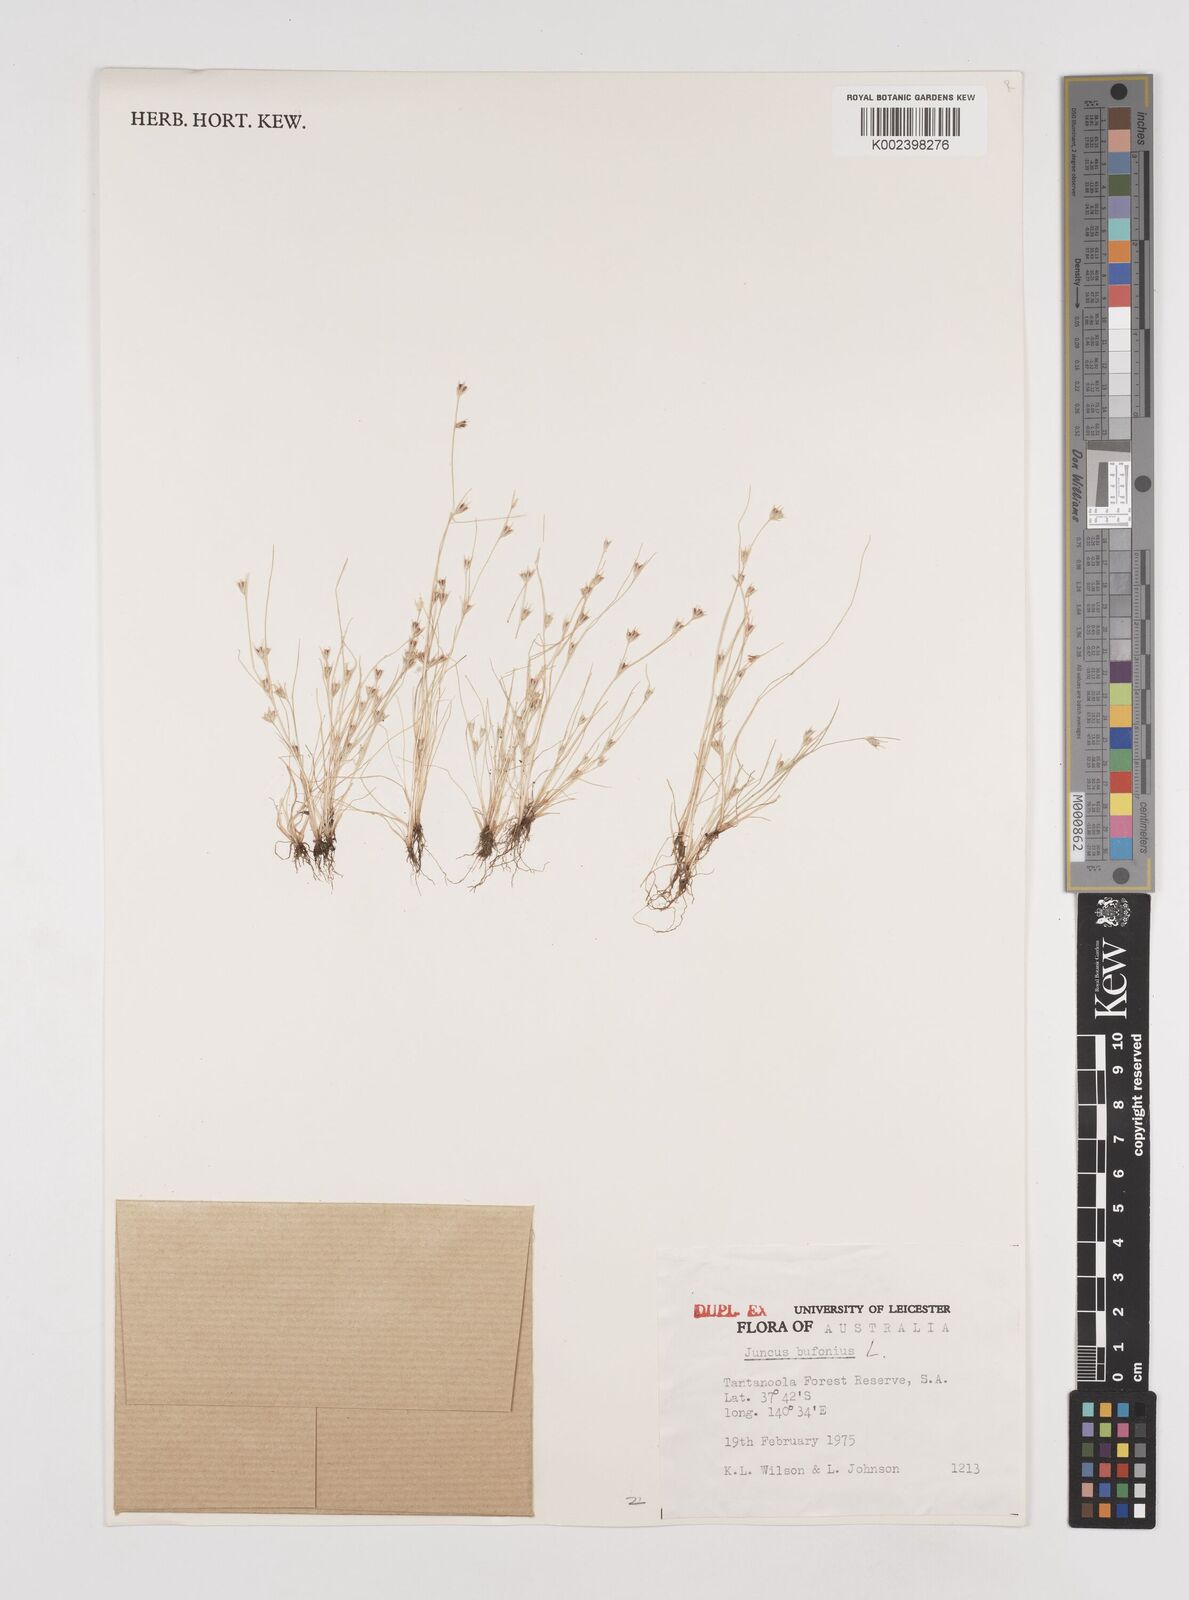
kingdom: Plantae
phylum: Tracheophyta
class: Liliopsida
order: Poales
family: Juncaceae
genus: Juncus
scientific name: Juncus bufonius
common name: Toad rush
